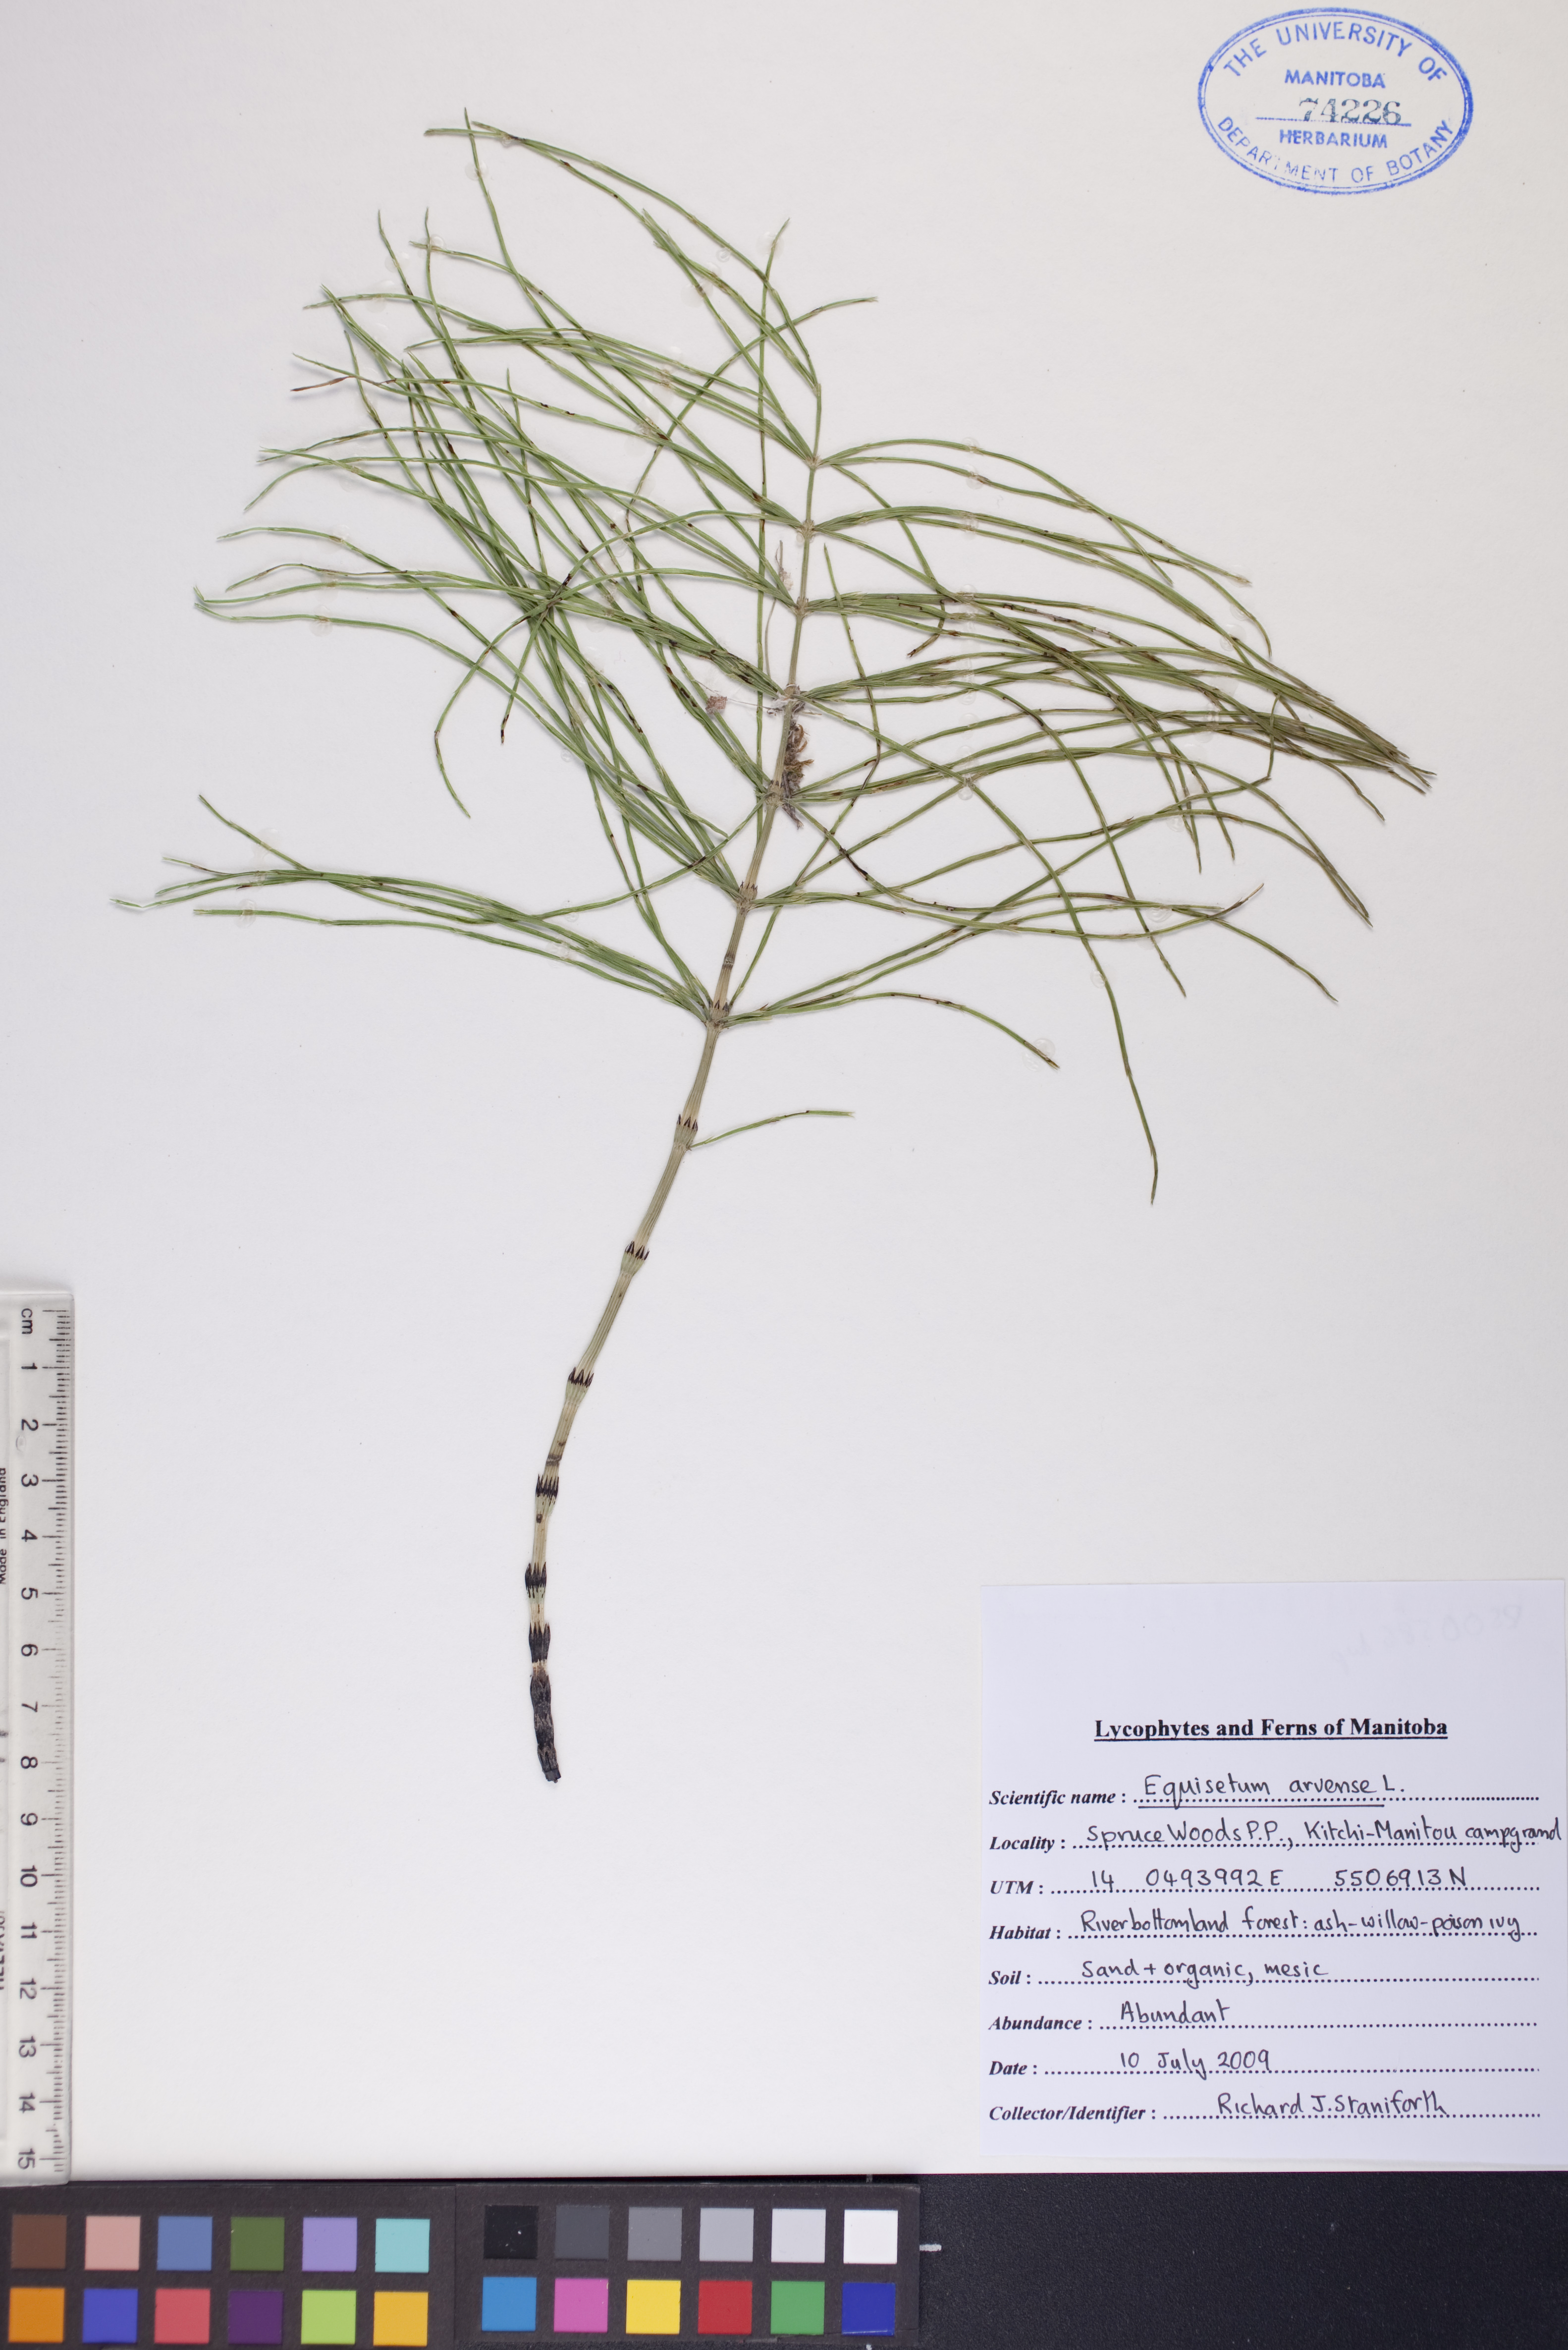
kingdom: Plantae
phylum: Tracheophyta
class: Polypodiopsida
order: Equisetales
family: Equisetaceae
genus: Equisetum
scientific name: Equisetum arvense
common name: Field horsetail
